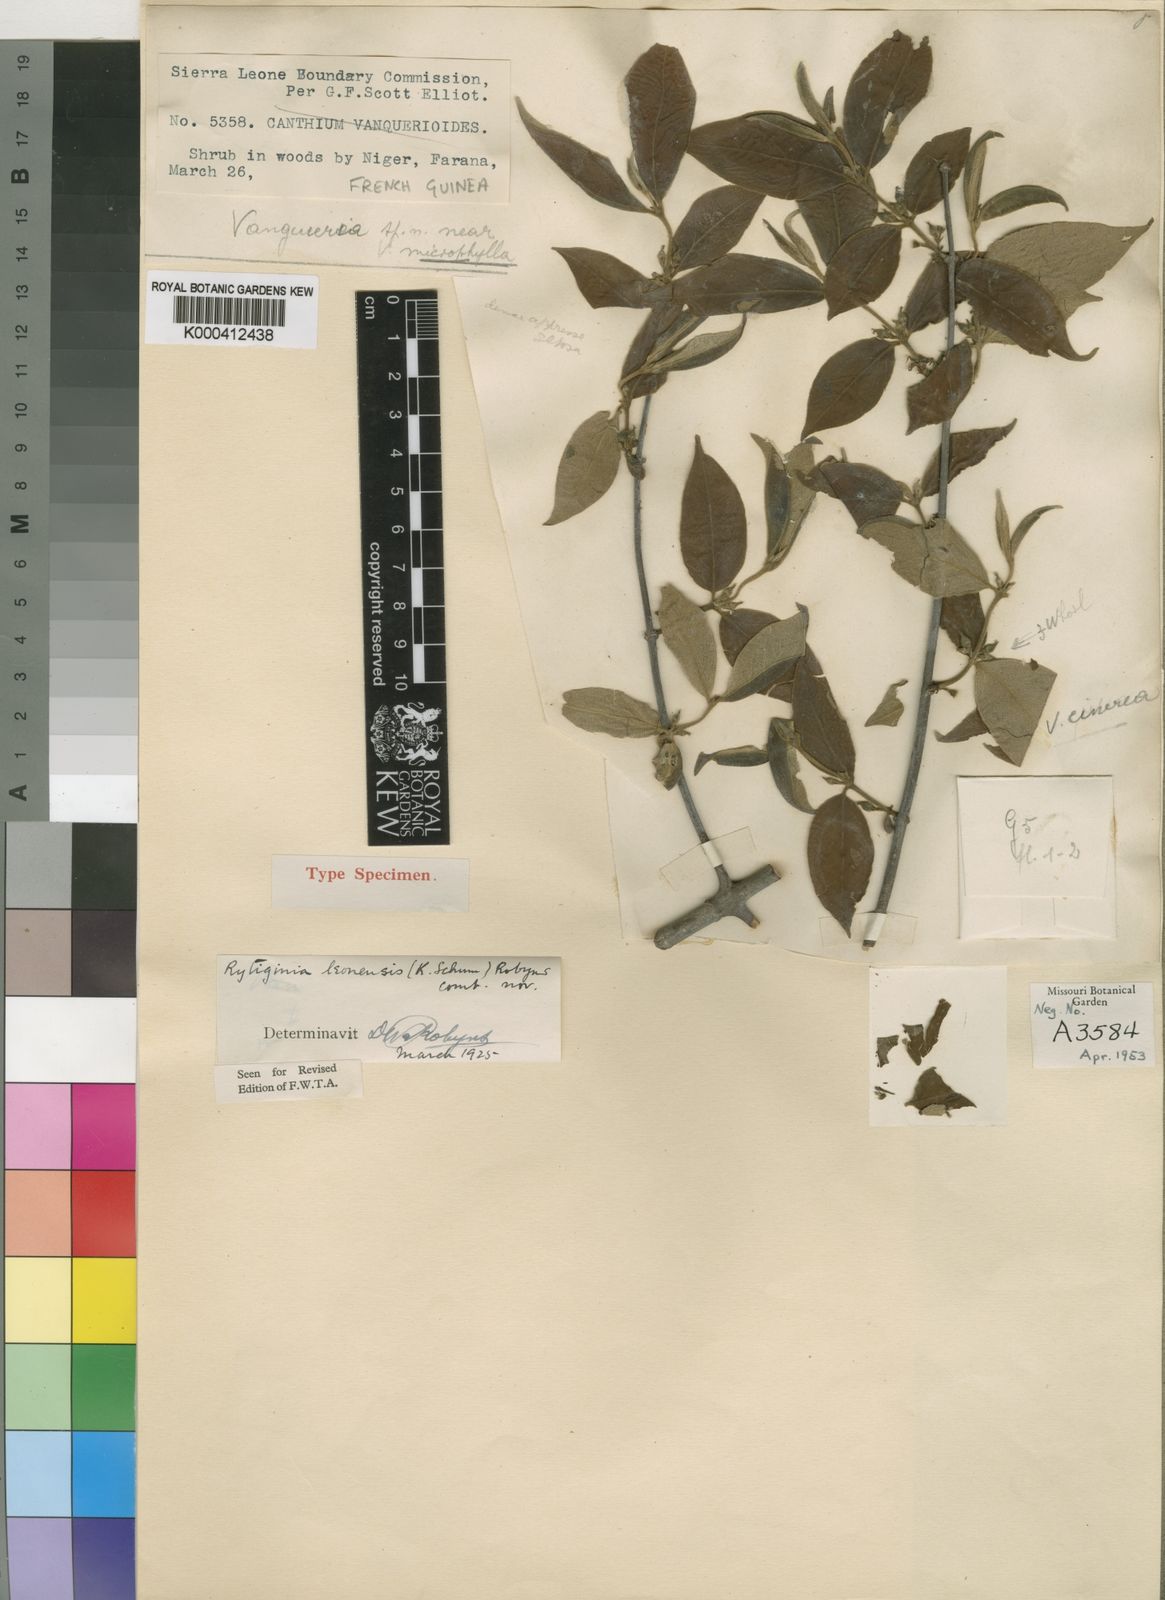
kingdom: Plantae
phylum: Tracheophyta
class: Magnoliopsida
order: Gentianales
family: Rubiaceae
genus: Rytigynia
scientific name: Rytigynia leonensis
